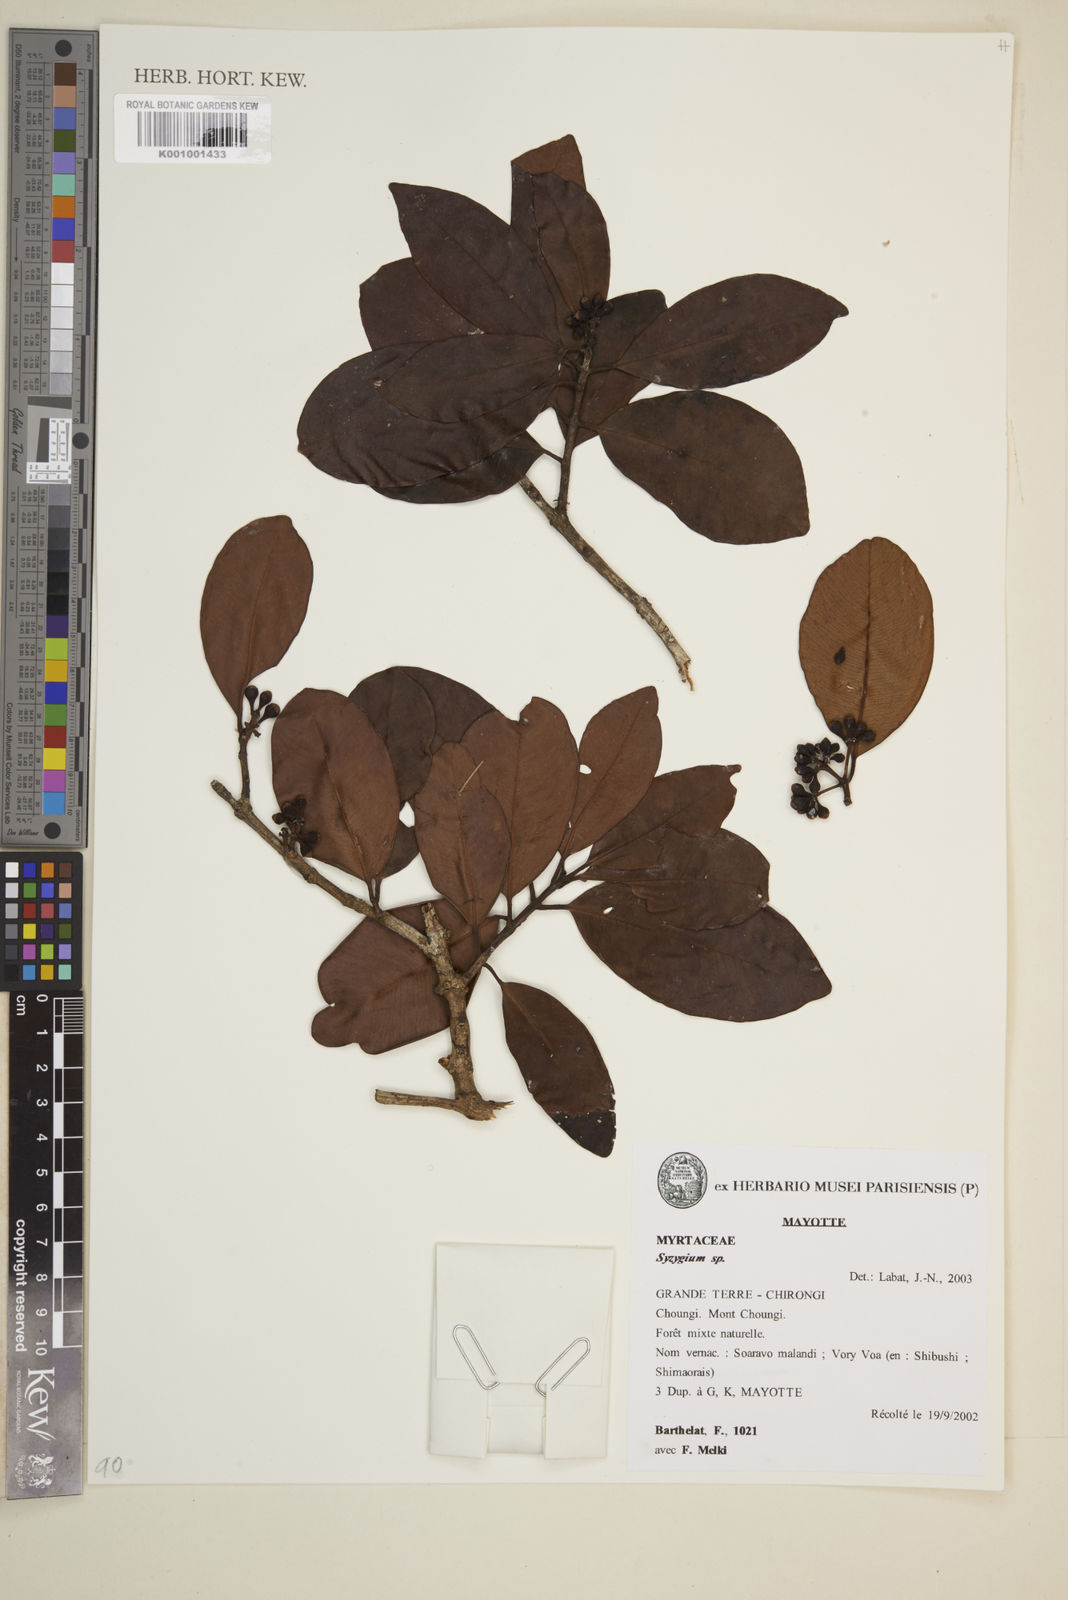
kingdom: Plantae
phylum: Tracheophyta
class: Magnoliopsida
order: Myrtales
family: Myrtaceae
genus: Eugenia
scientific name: Eugenia
